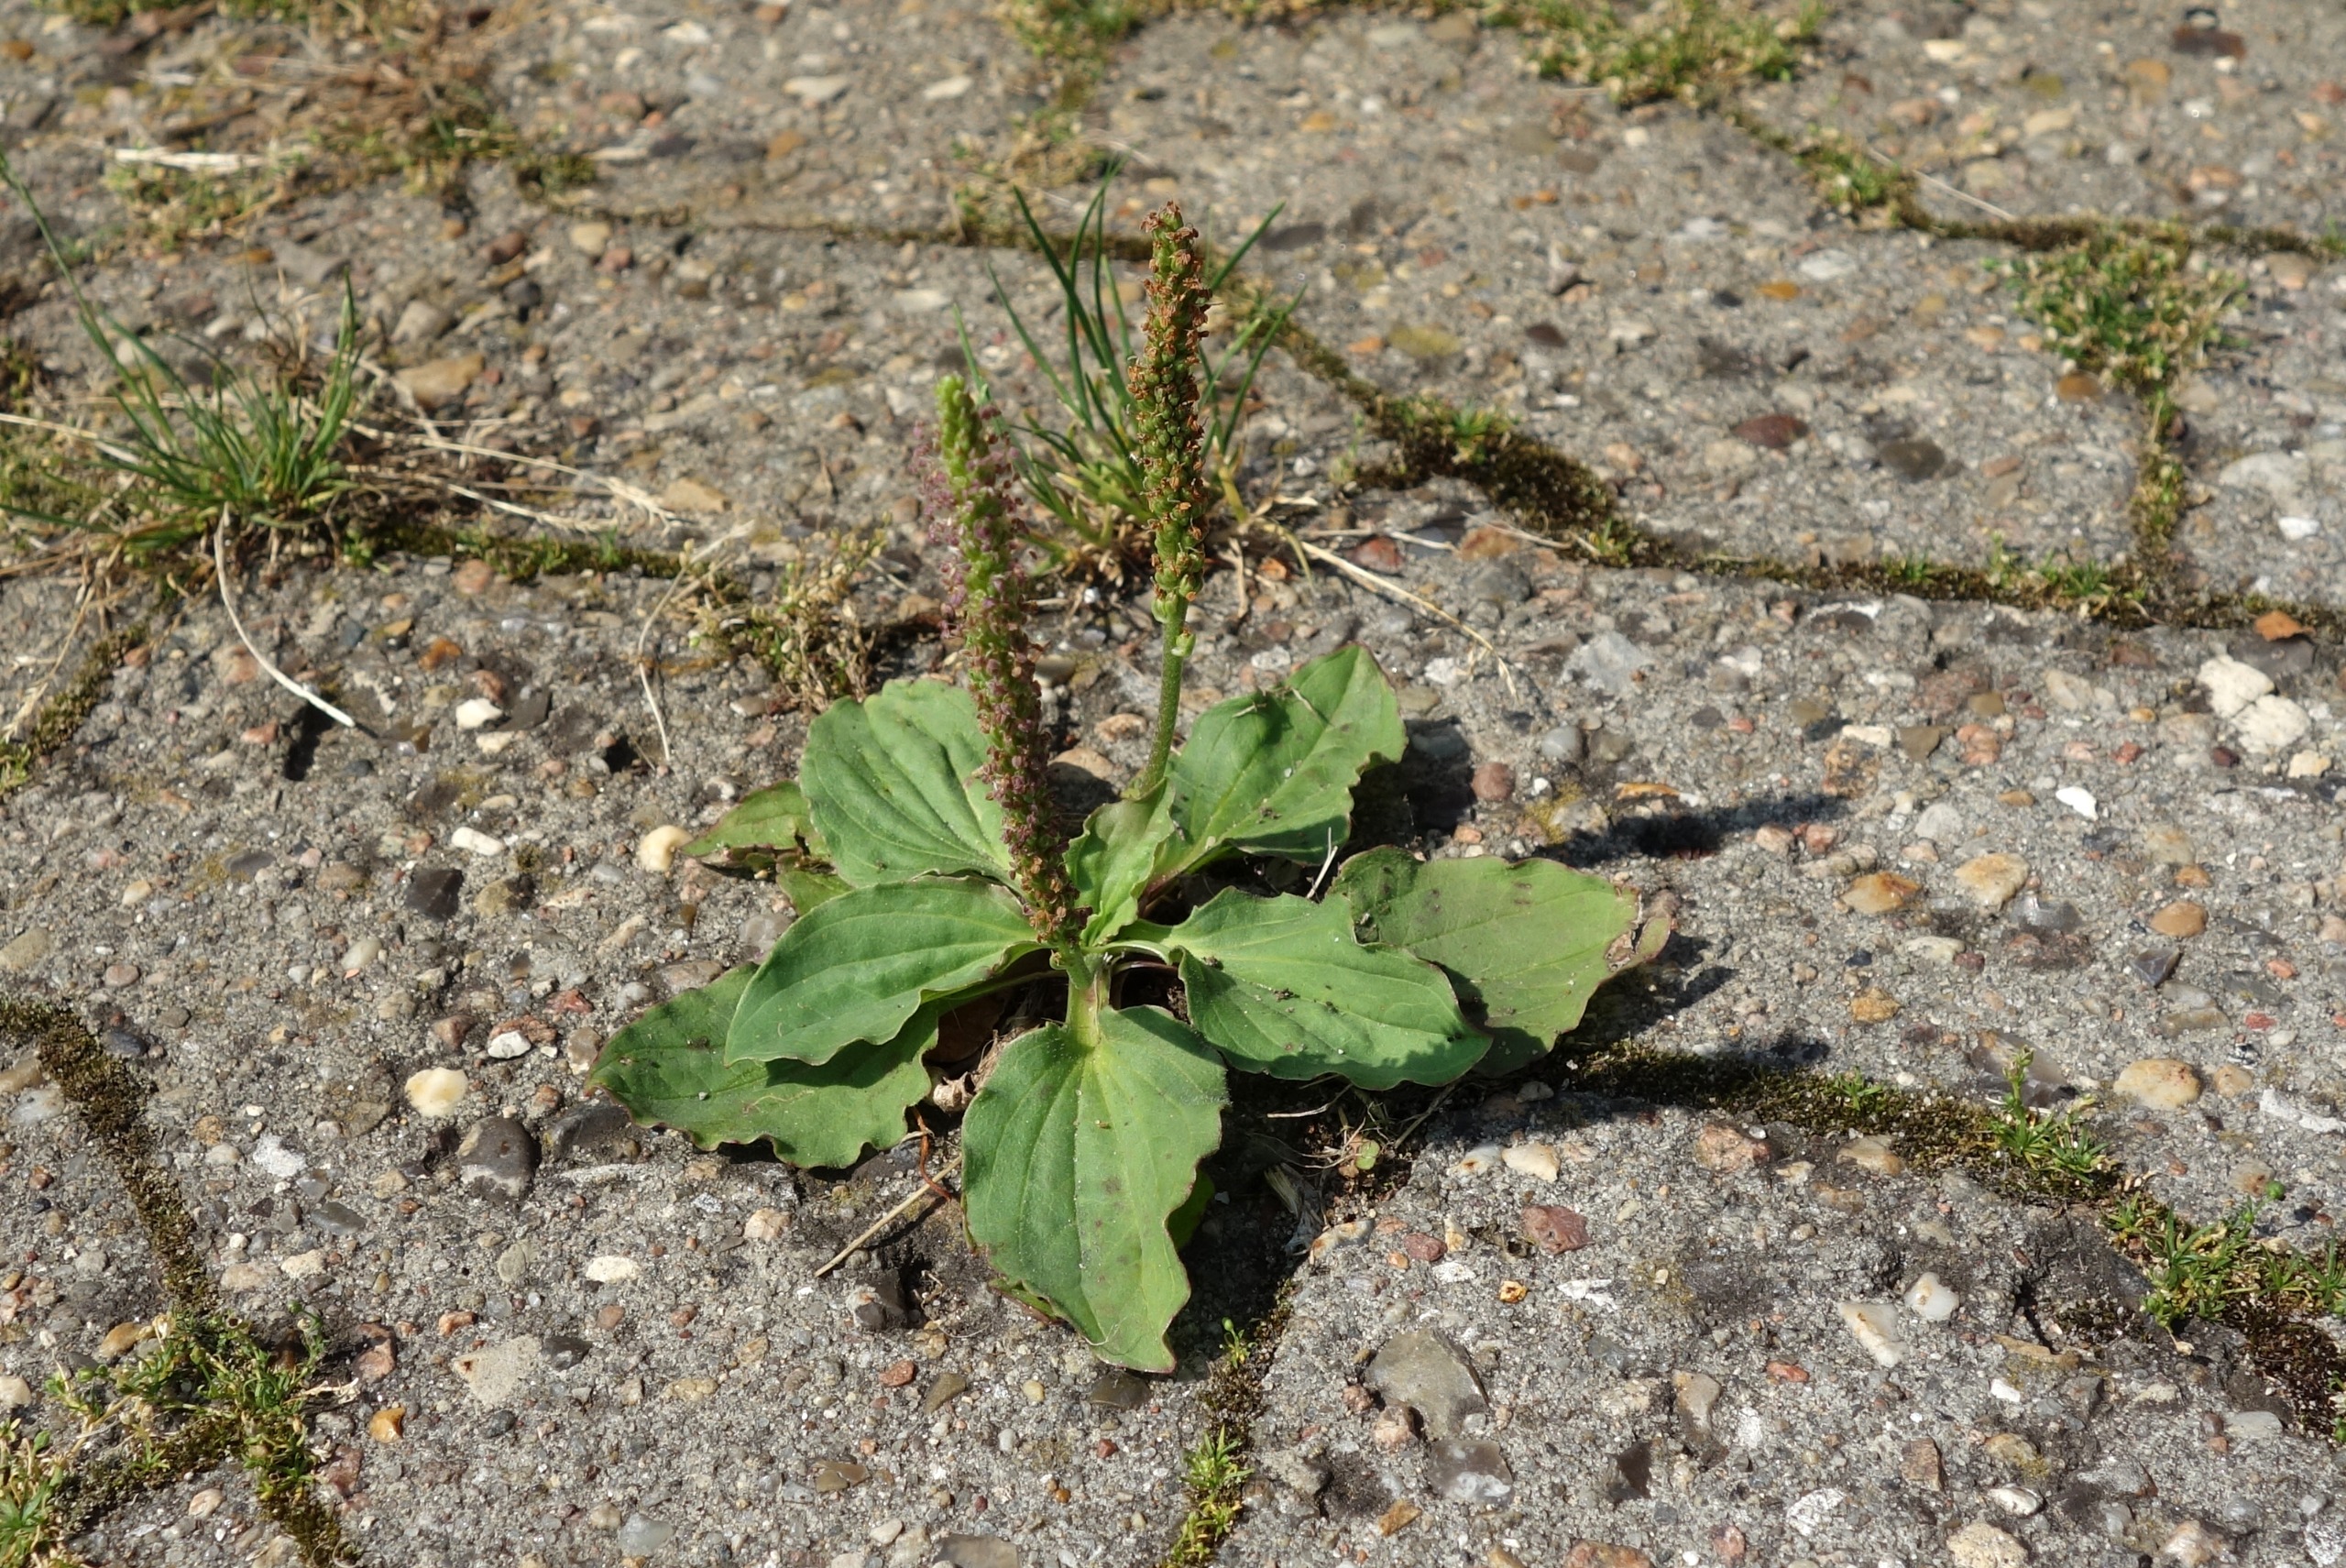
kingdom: Plantae
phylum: Tracheophyta
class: Magnoliopsida
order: Lamiales
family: Plantaginaceae
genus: Plantago
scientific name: Plantago major
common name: Glat vejbred
